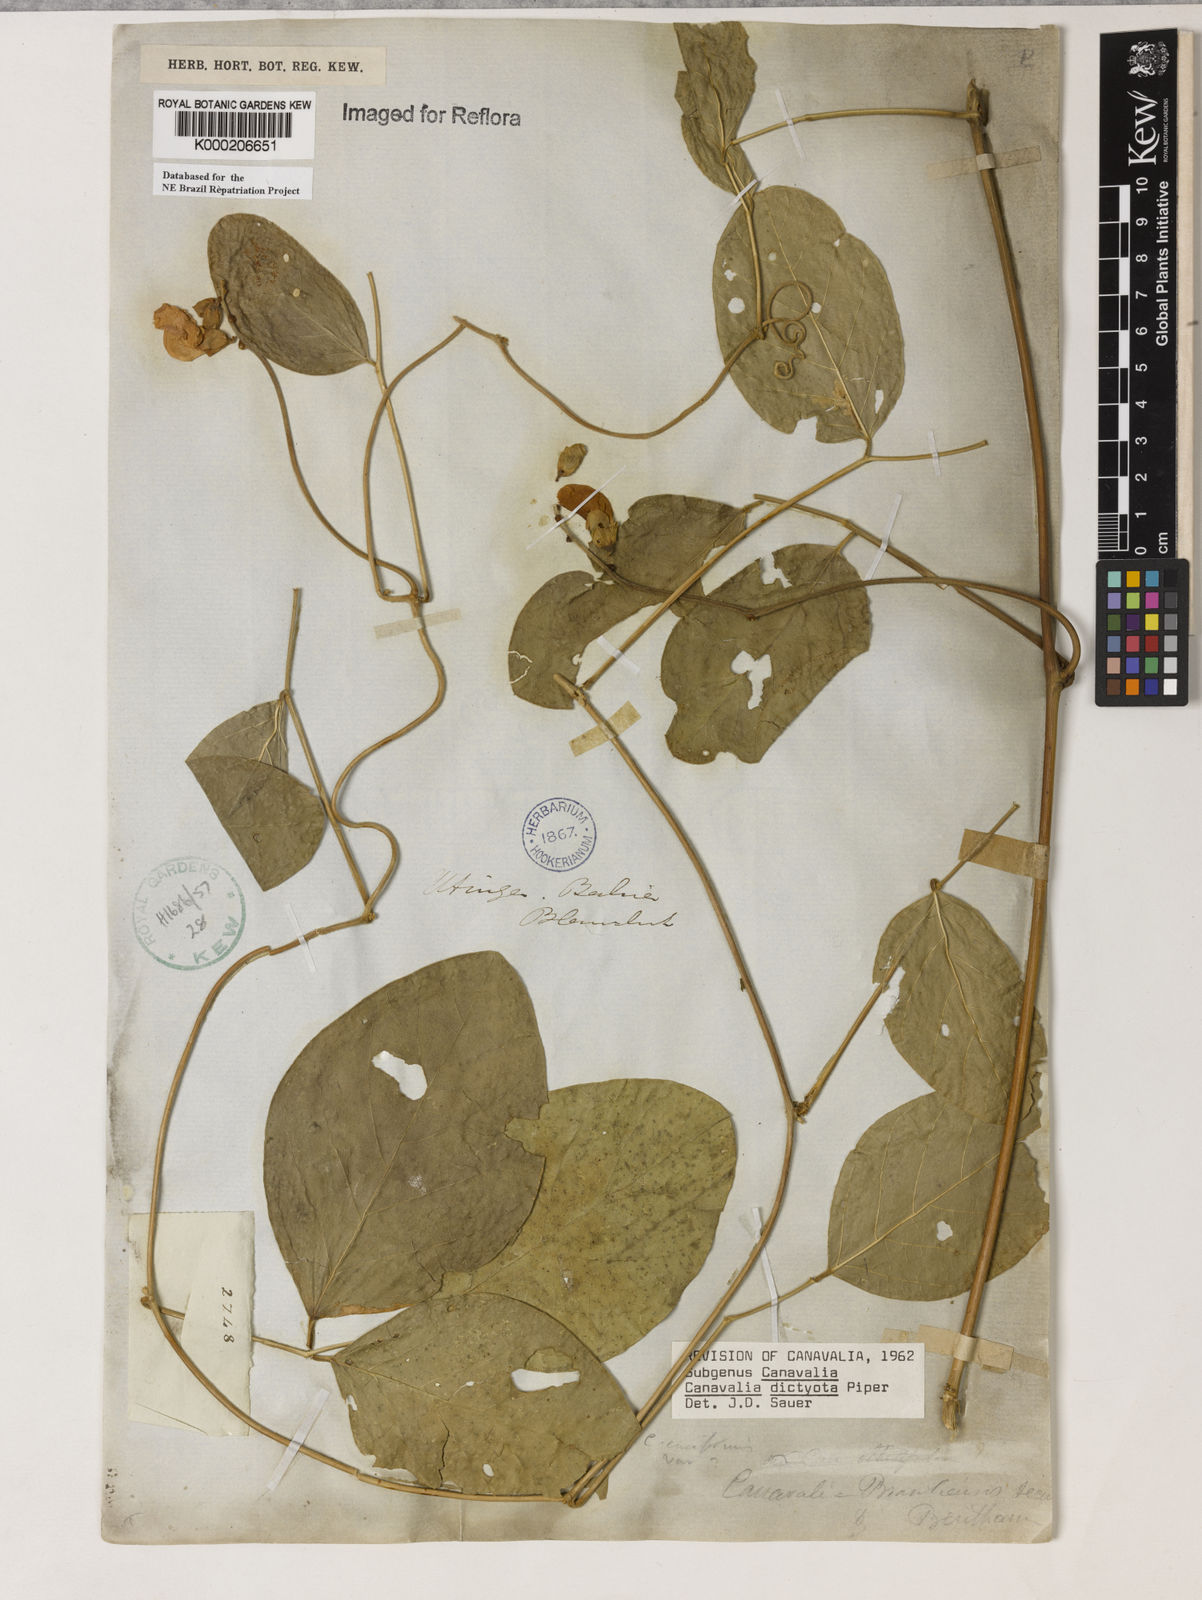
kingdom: Plantae
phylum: Tracheophyta
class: Magnoliopsida
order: Fabales
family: Fabaceae
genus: Canavalia
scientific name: Canavalia brasiliensis
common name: Barbicou-bean
